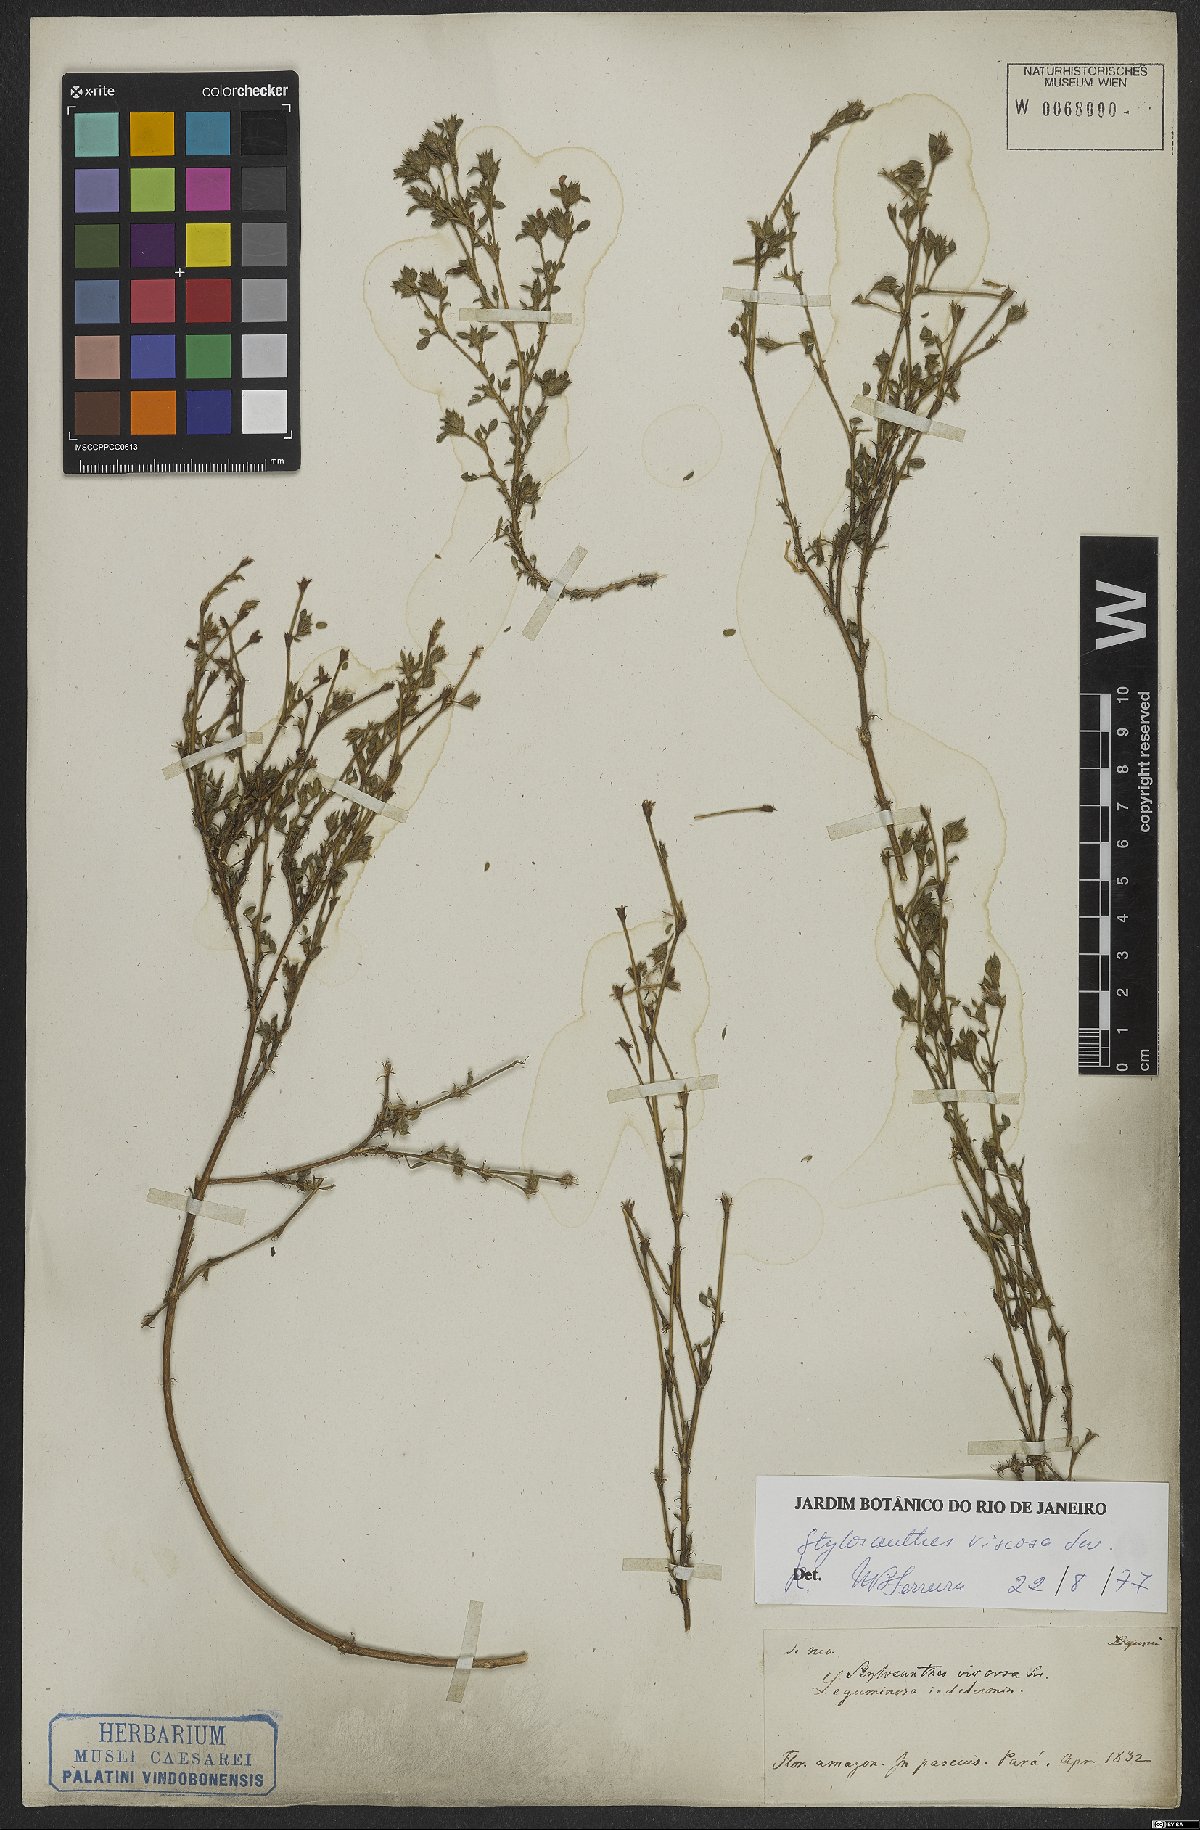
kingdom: Plantae
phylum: Tracheophyta
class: Magnoliopsida
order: Fabales
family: Fabaceae
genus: Stylosanthes
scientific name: Stylosanthes viscosa
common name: Viscid pencil-flower
